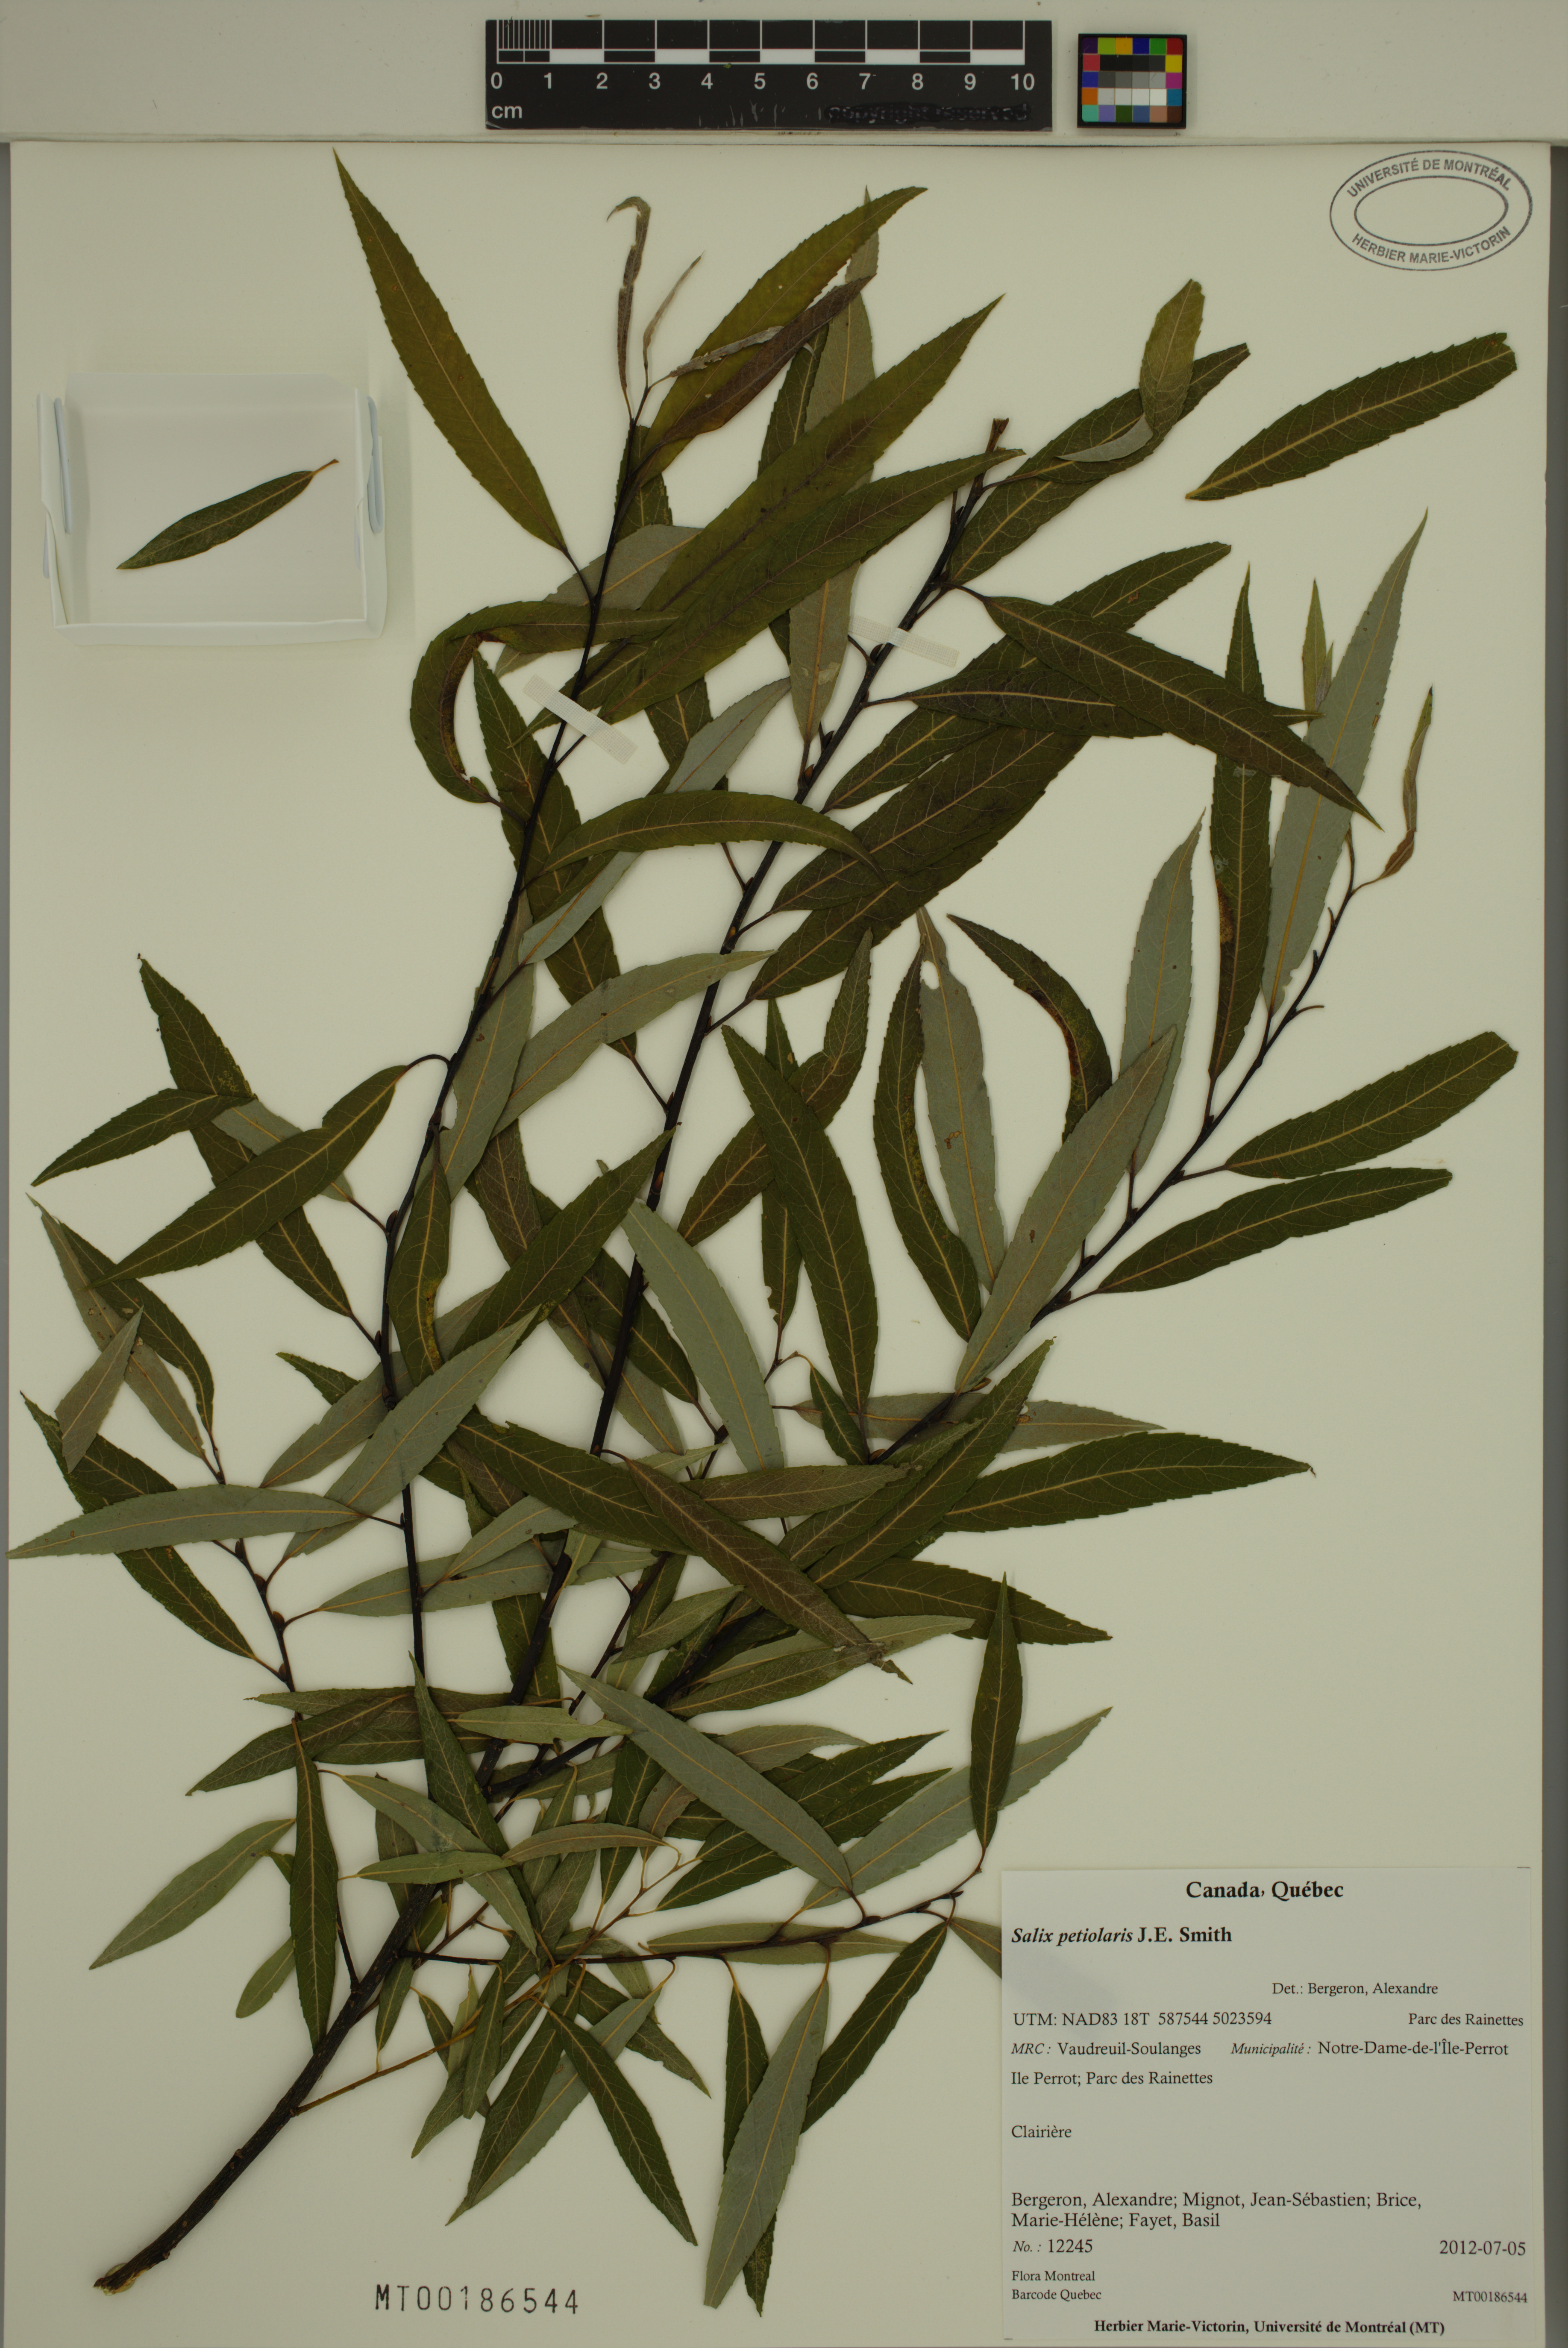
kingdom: Plantae
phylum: Tracheophyta
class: Magnoliopsida
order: Malpighiales
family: Salicaceae
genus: Salix
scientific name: Salix petiolaris
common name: Slender willow
